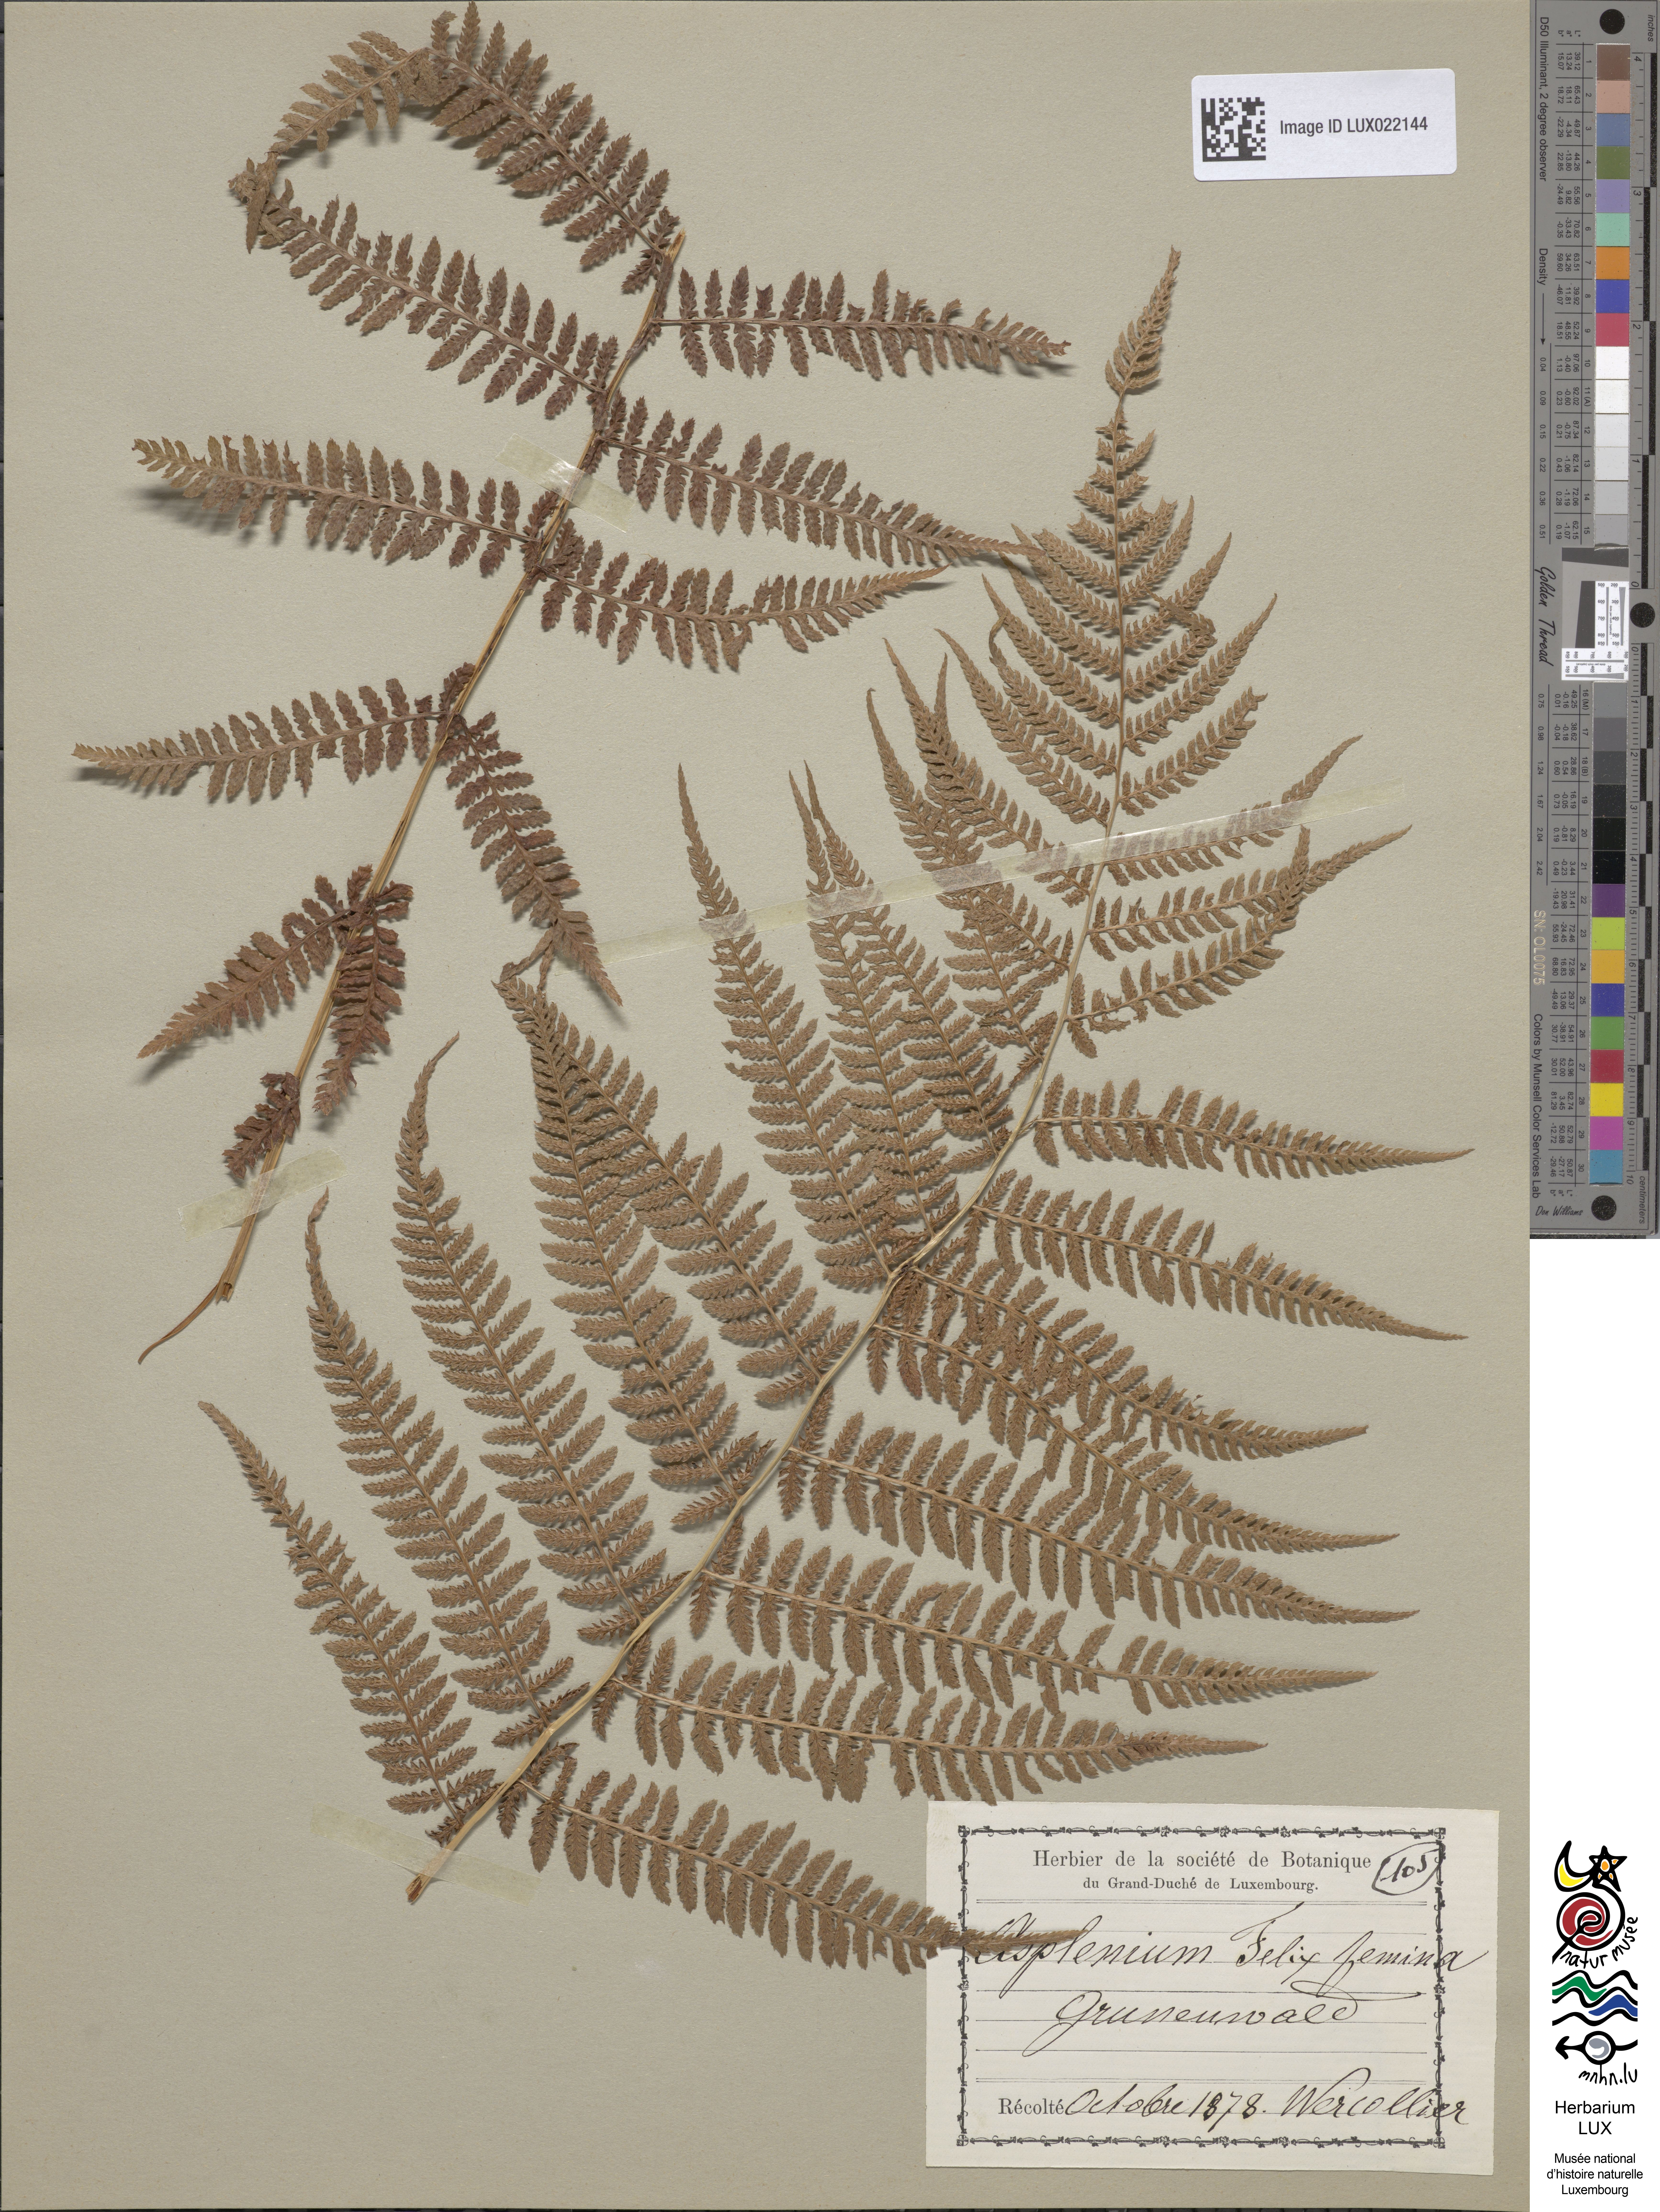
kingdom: Plantae
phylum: Tracheophyta
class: Polypodiopsida
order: Polypodiales
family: Athyriaceae
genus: Athyrium
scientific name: Athyrium filix-femina
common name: Lady fern
